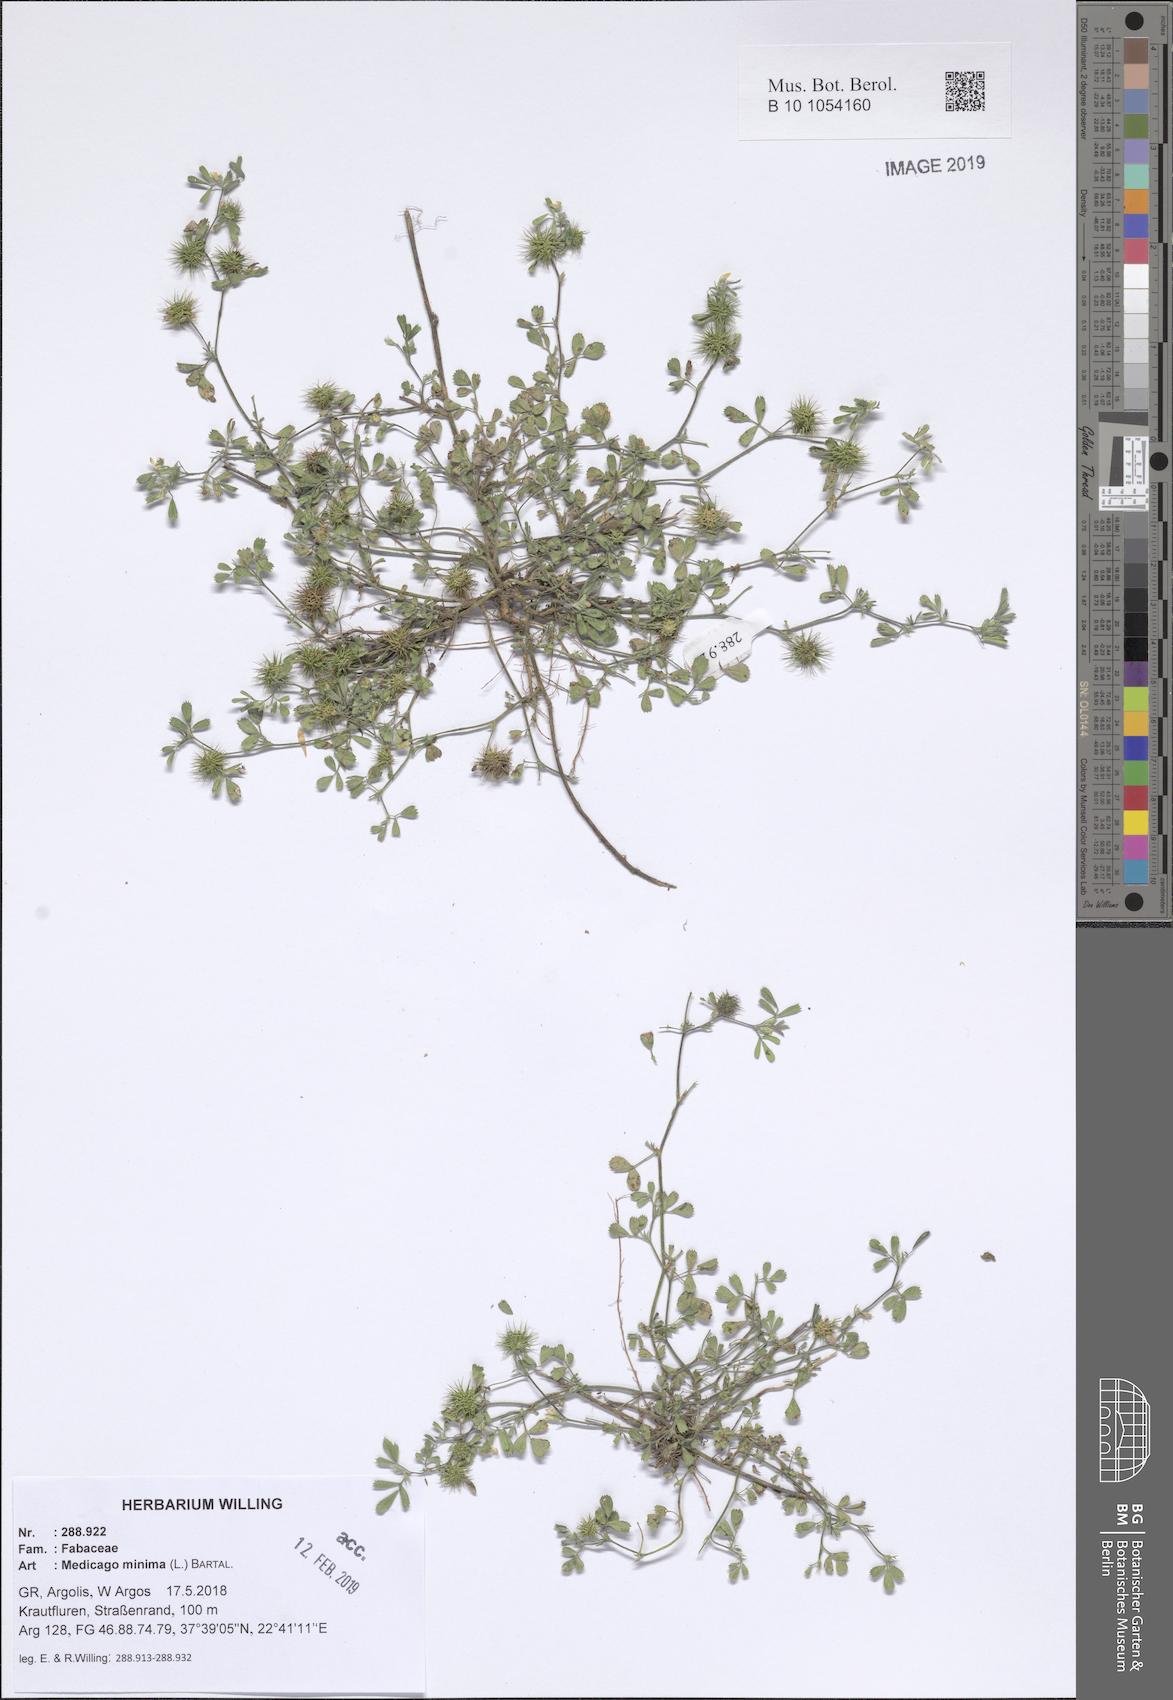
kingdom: Plantae
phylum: Tracheophyta
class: Magnoliopsida
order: Fabales
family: Fabaceae
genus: Medicago
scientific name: Medicago minima
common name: Little bur-clover
